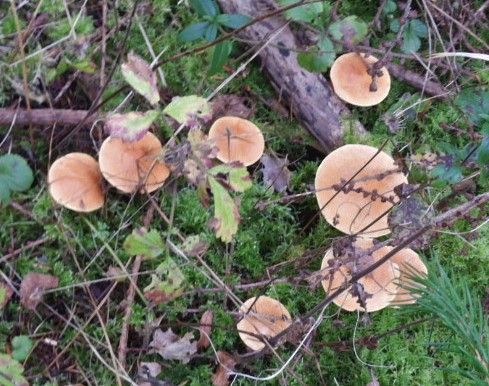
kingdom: Fungi
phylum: Basidiomycota
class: Agaricomycetes
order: Boletales
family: Suillaceae
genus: Suillus
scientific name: Suillus grevillei
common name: lærke-slimrørhat
